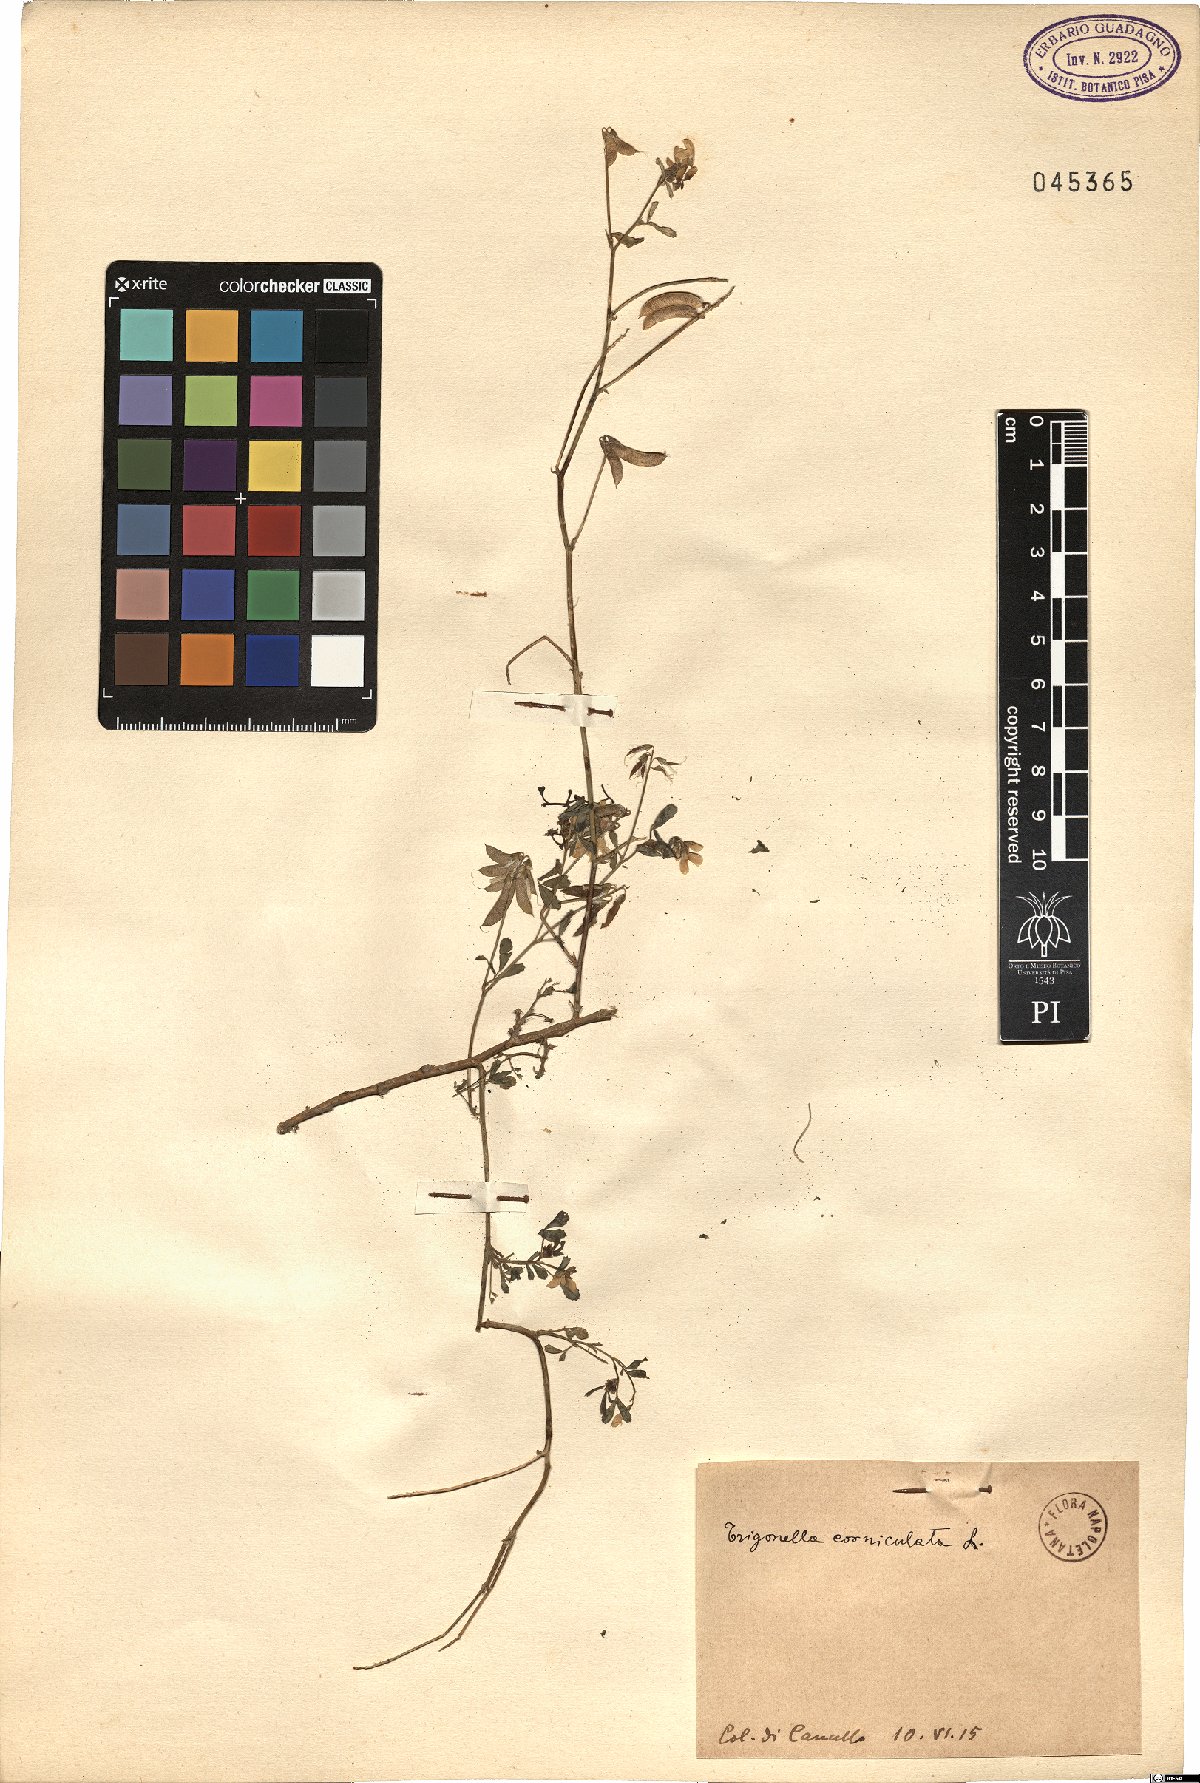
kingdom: Plantae
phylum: Tracheophyta
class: Magnoliopsida
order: Fabales
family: Fabaceae
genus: Trigonella
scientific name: Trigonella balansae
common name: Sickle-fruited fenugreek
